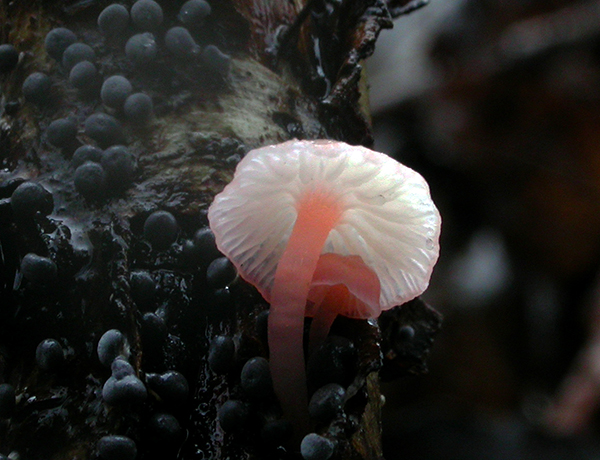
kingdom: Fungi
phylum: Basidiomycota
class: Agaricomycetes
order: Agaricales
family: Mycenaceae
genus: Mycena
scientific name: Mycena coccinea
